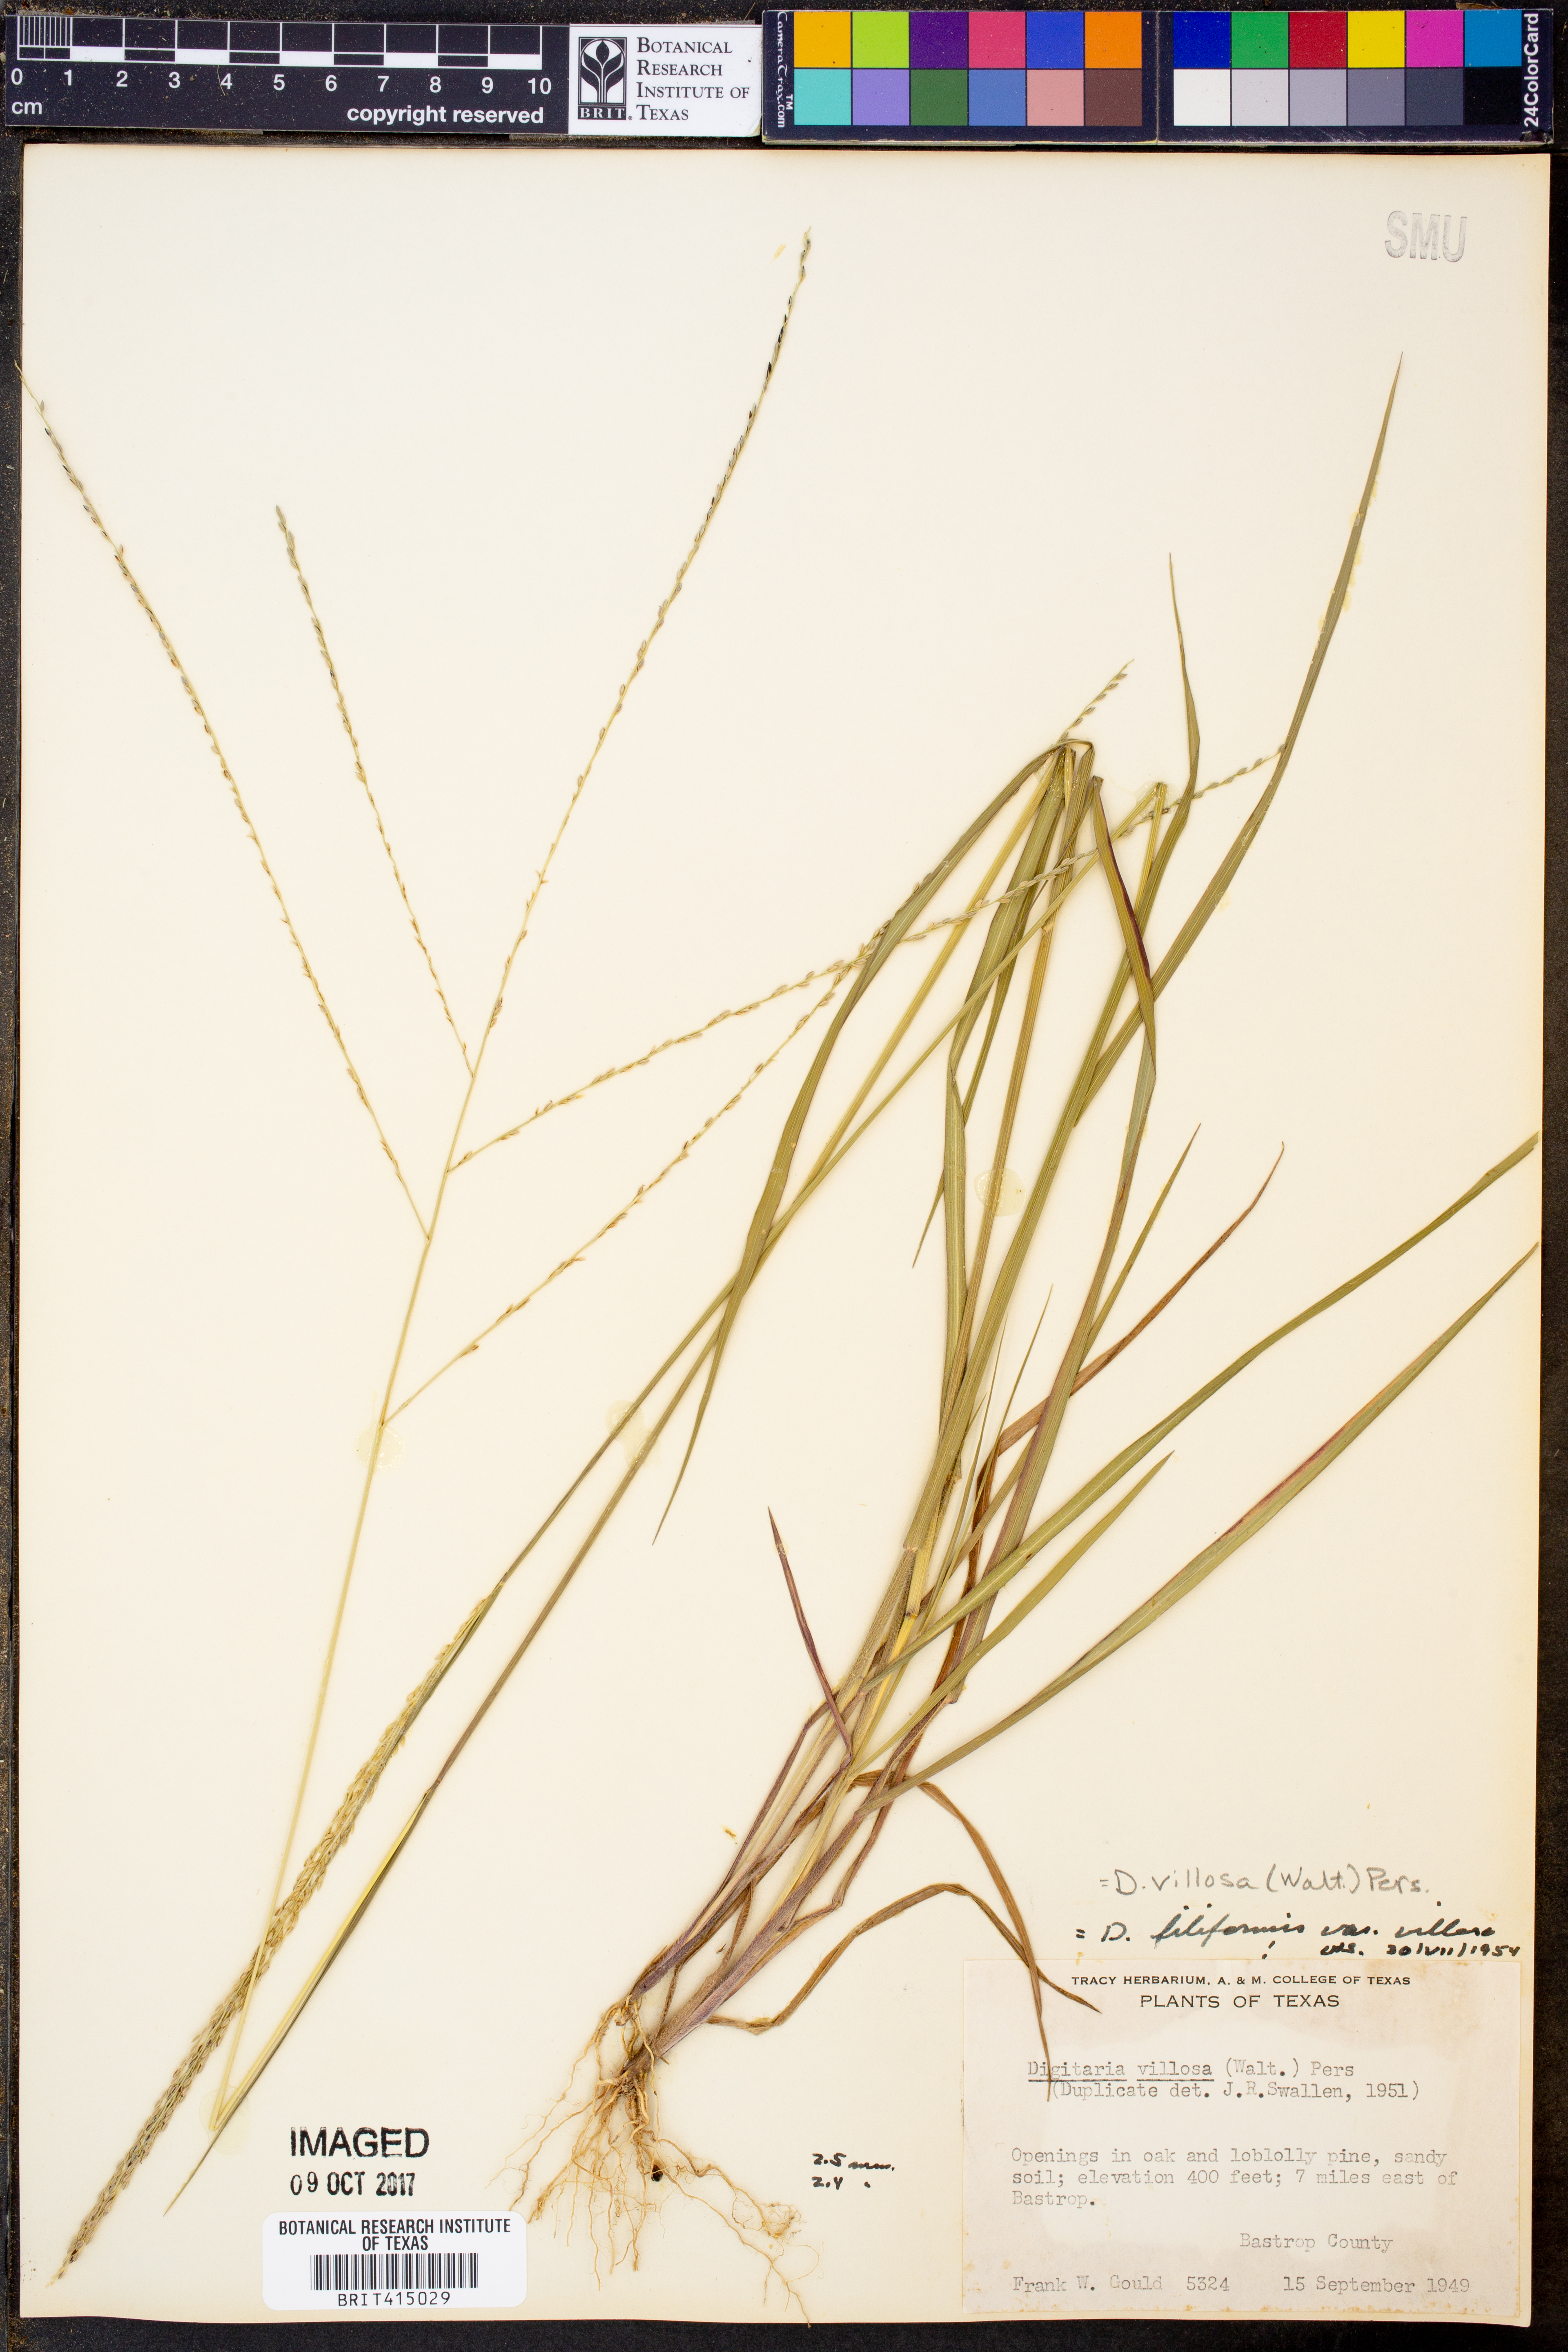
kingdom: Plantae
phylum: Tracheophyta
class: Liliopsida
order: Poales
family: Poaceae
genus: Digitaria
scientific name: Digitaria villosa
